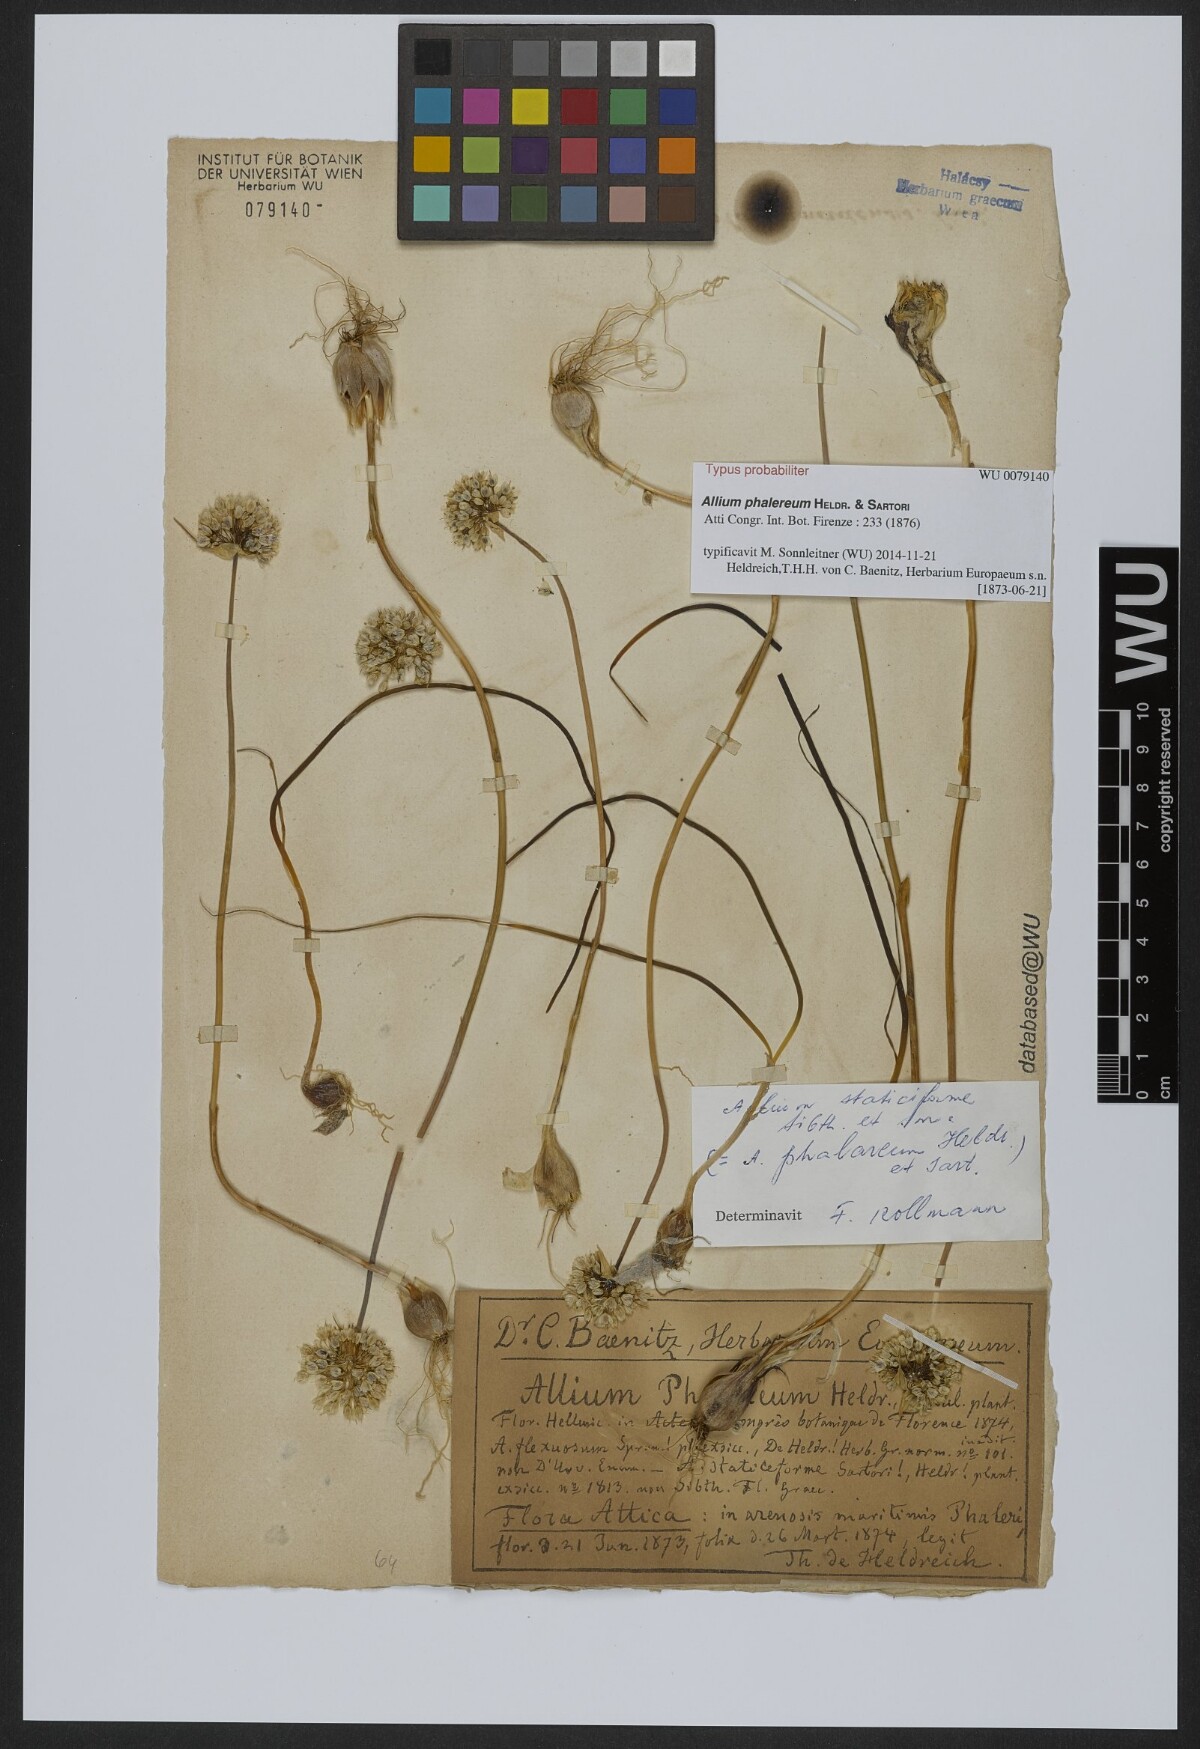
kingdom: Plantae
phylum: Tracheophyta
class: Liliopsida
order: Asparagales
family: Amaryllidaceae
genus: Allium
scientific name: Allium staticiforme
